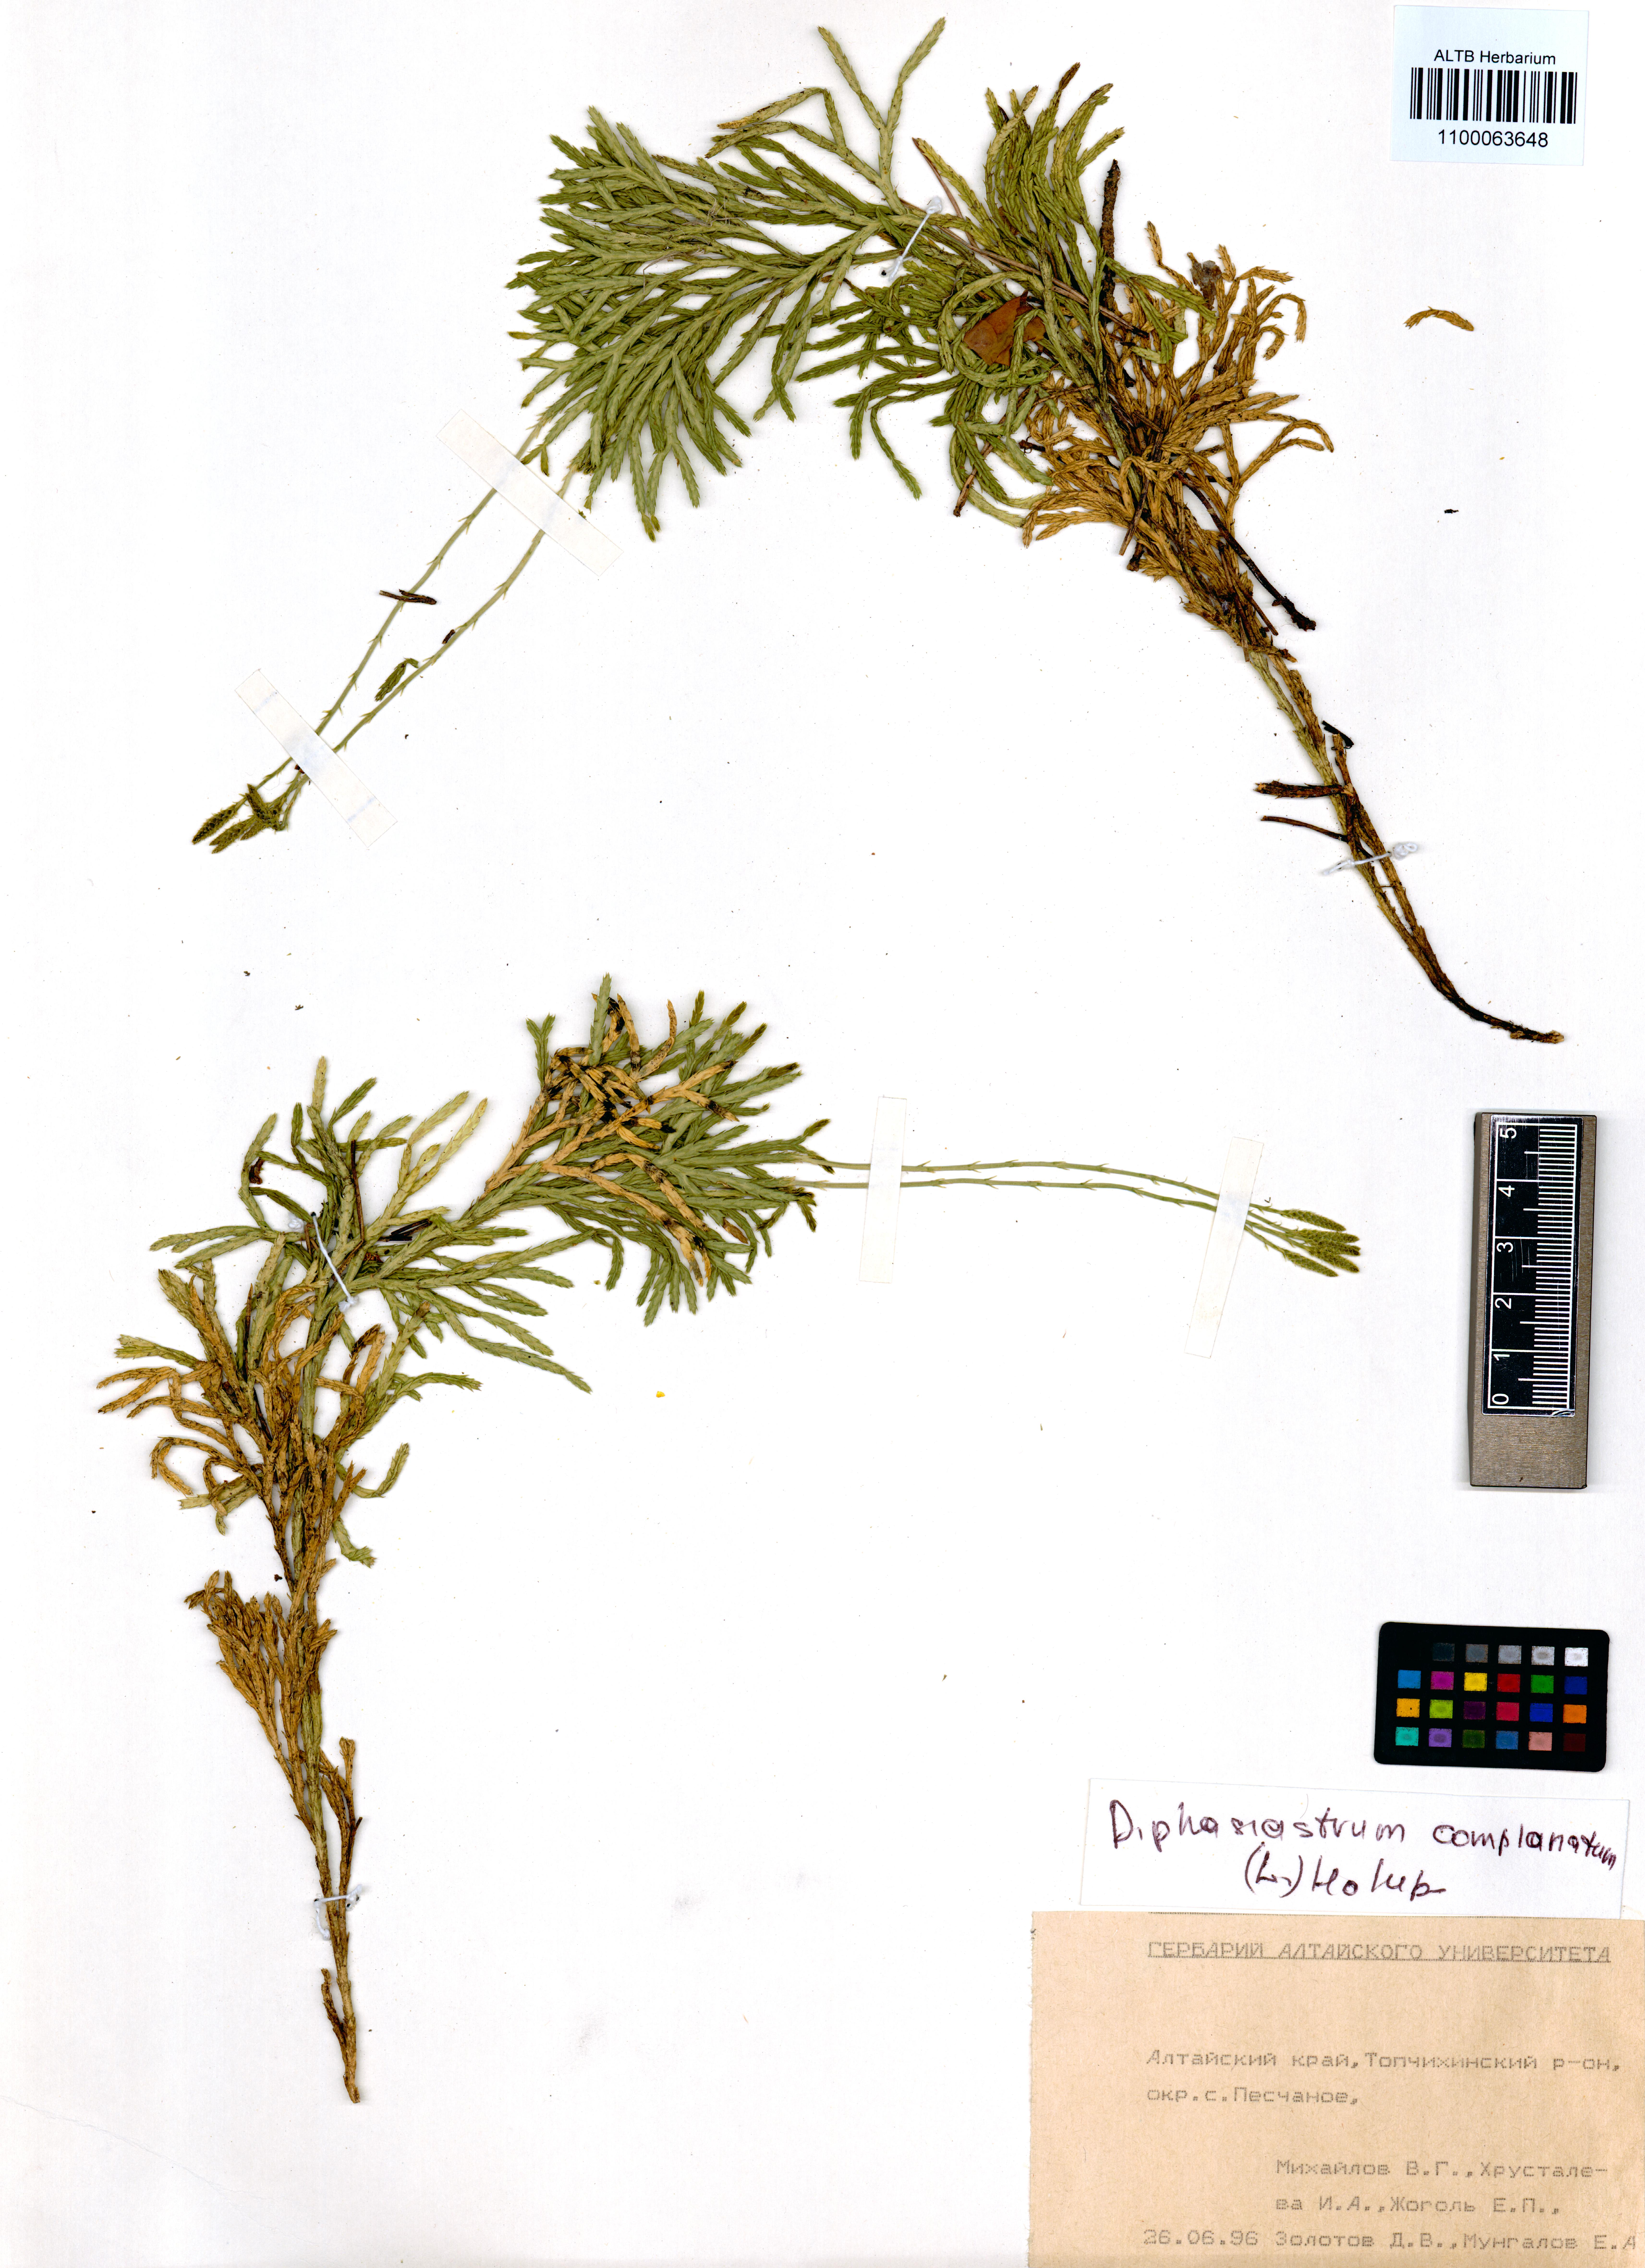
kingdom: Plantae
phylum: Tracheophyta
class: Lycopodiopsida
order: Lycopodiales
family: Lycopodiaceae
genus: Diphasiastrum
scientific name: Diphasiastrum complanatum
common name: Northern running-pine
